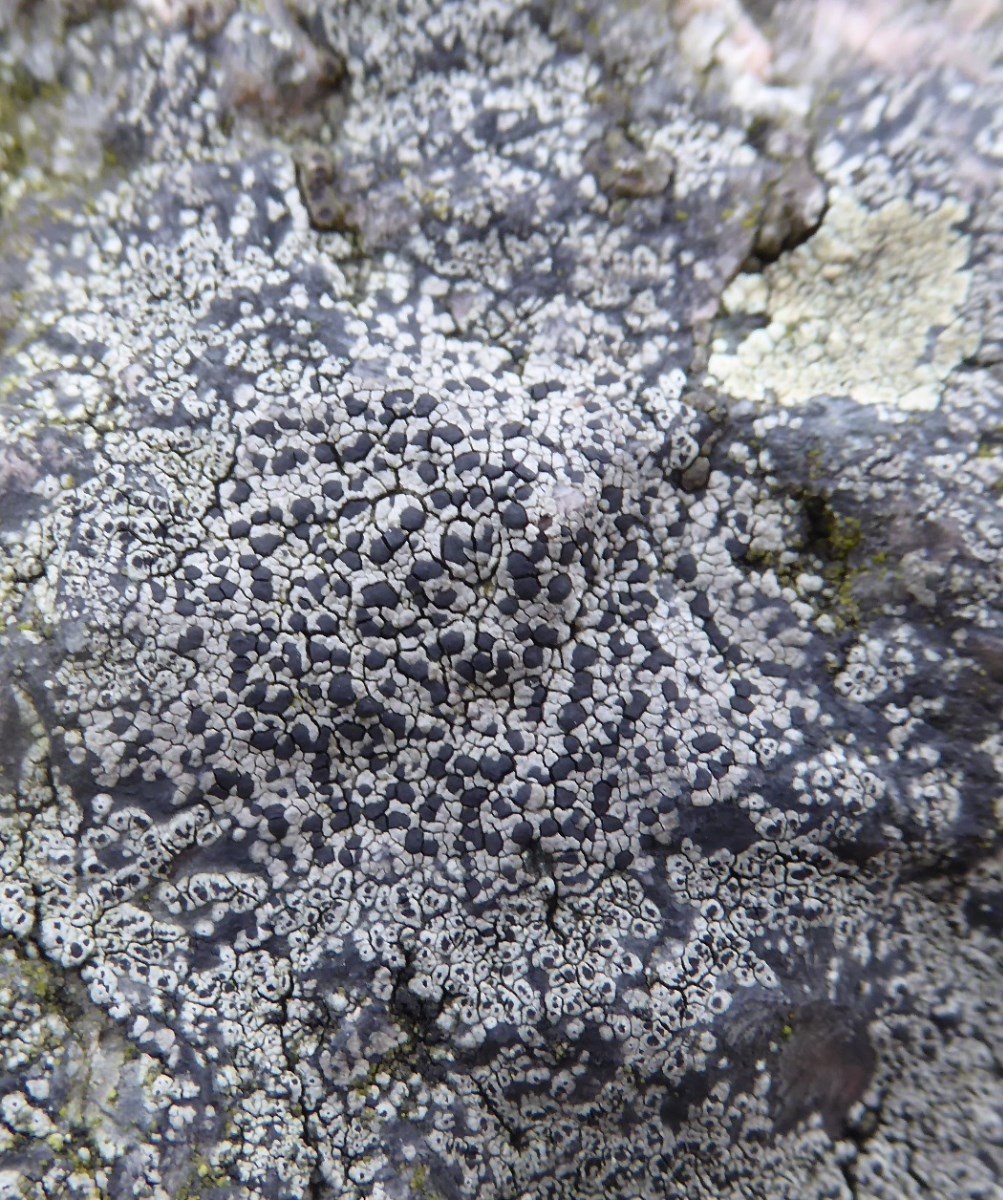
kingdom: Fungi
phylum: Ascomycota
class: Lecanoromycetes
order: Rhizocarpales
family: Rhizocarpaceae
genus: Rhizocarpon
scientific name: Rhizocarpon richardii
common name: Kyst-landkortlav
